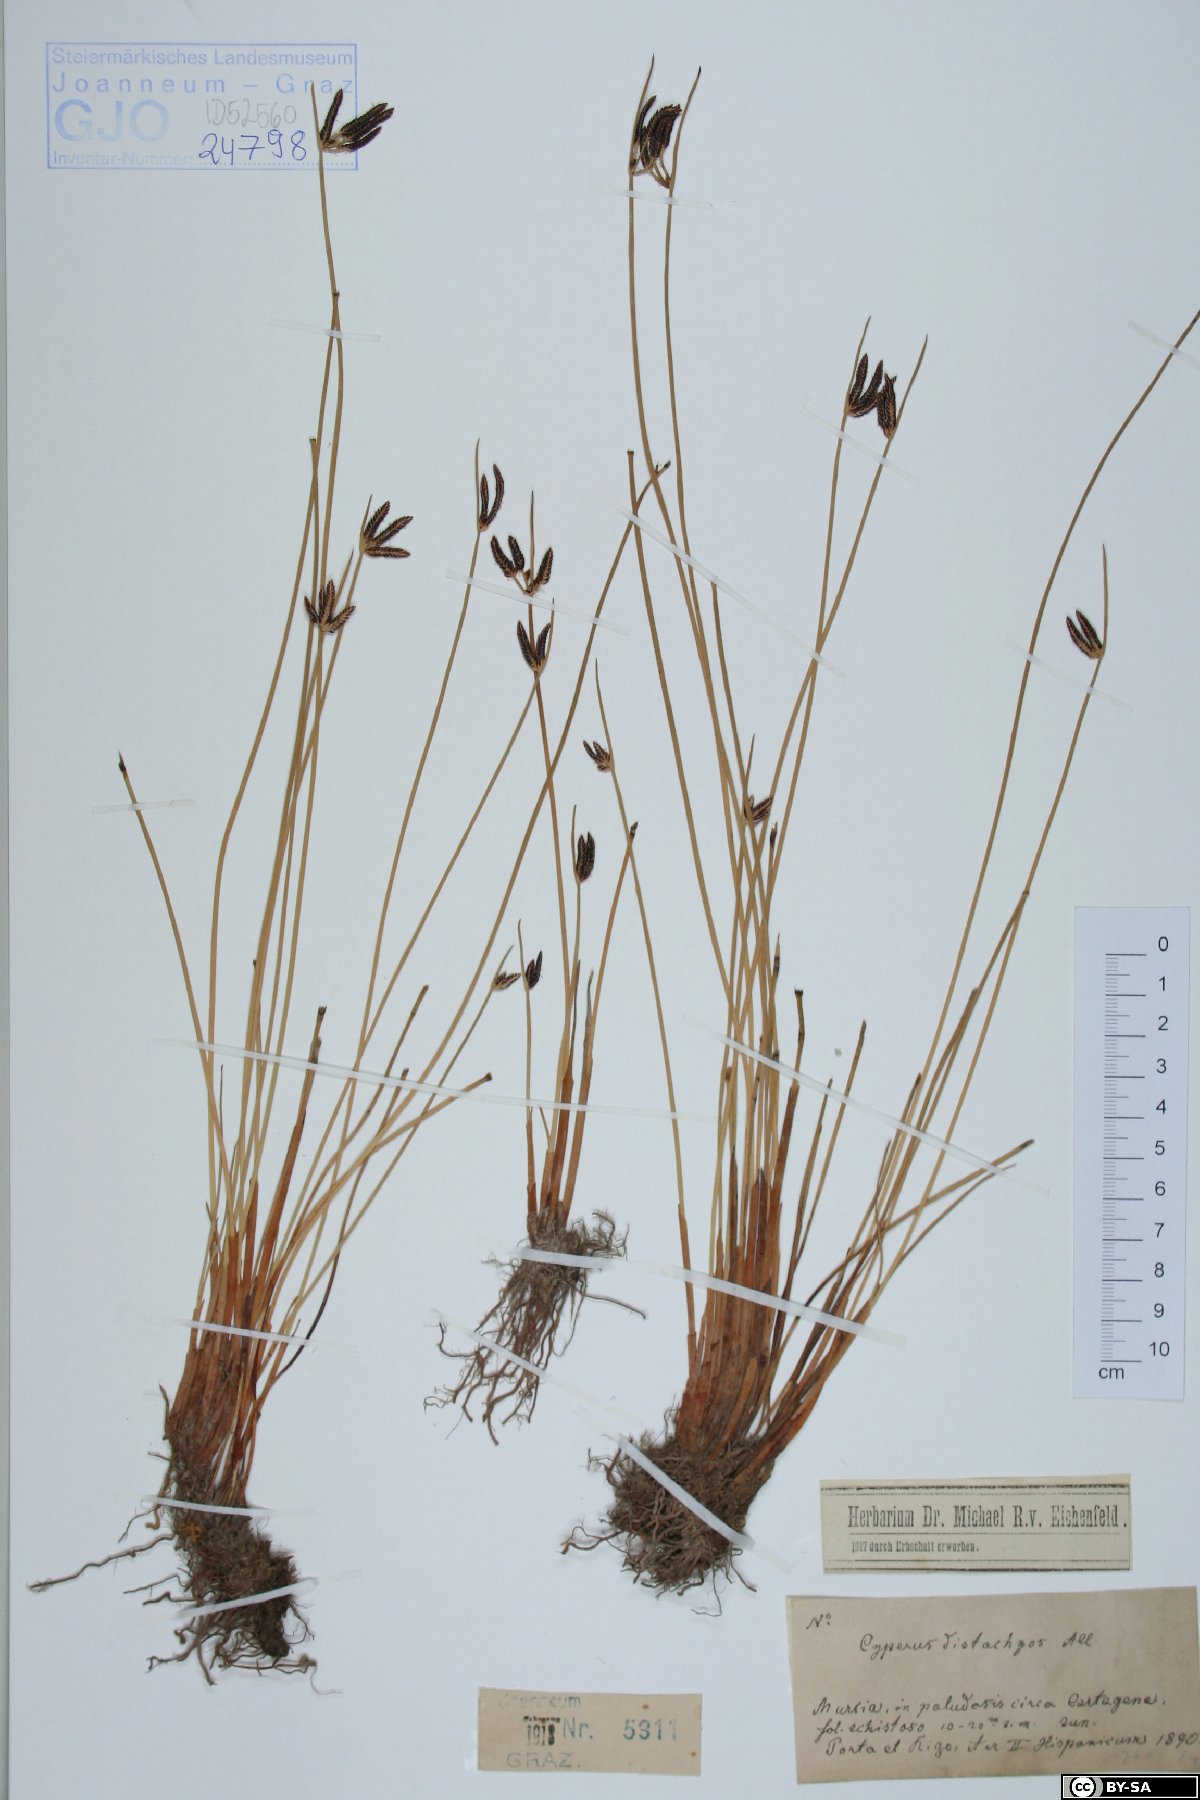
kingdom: Plantae
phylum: Tracheophyta
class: Liliopsida
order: Poales
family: Cyperaceae
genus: Cyperus
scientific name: Cyperus laevigatus
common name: Smooth flat sedge
